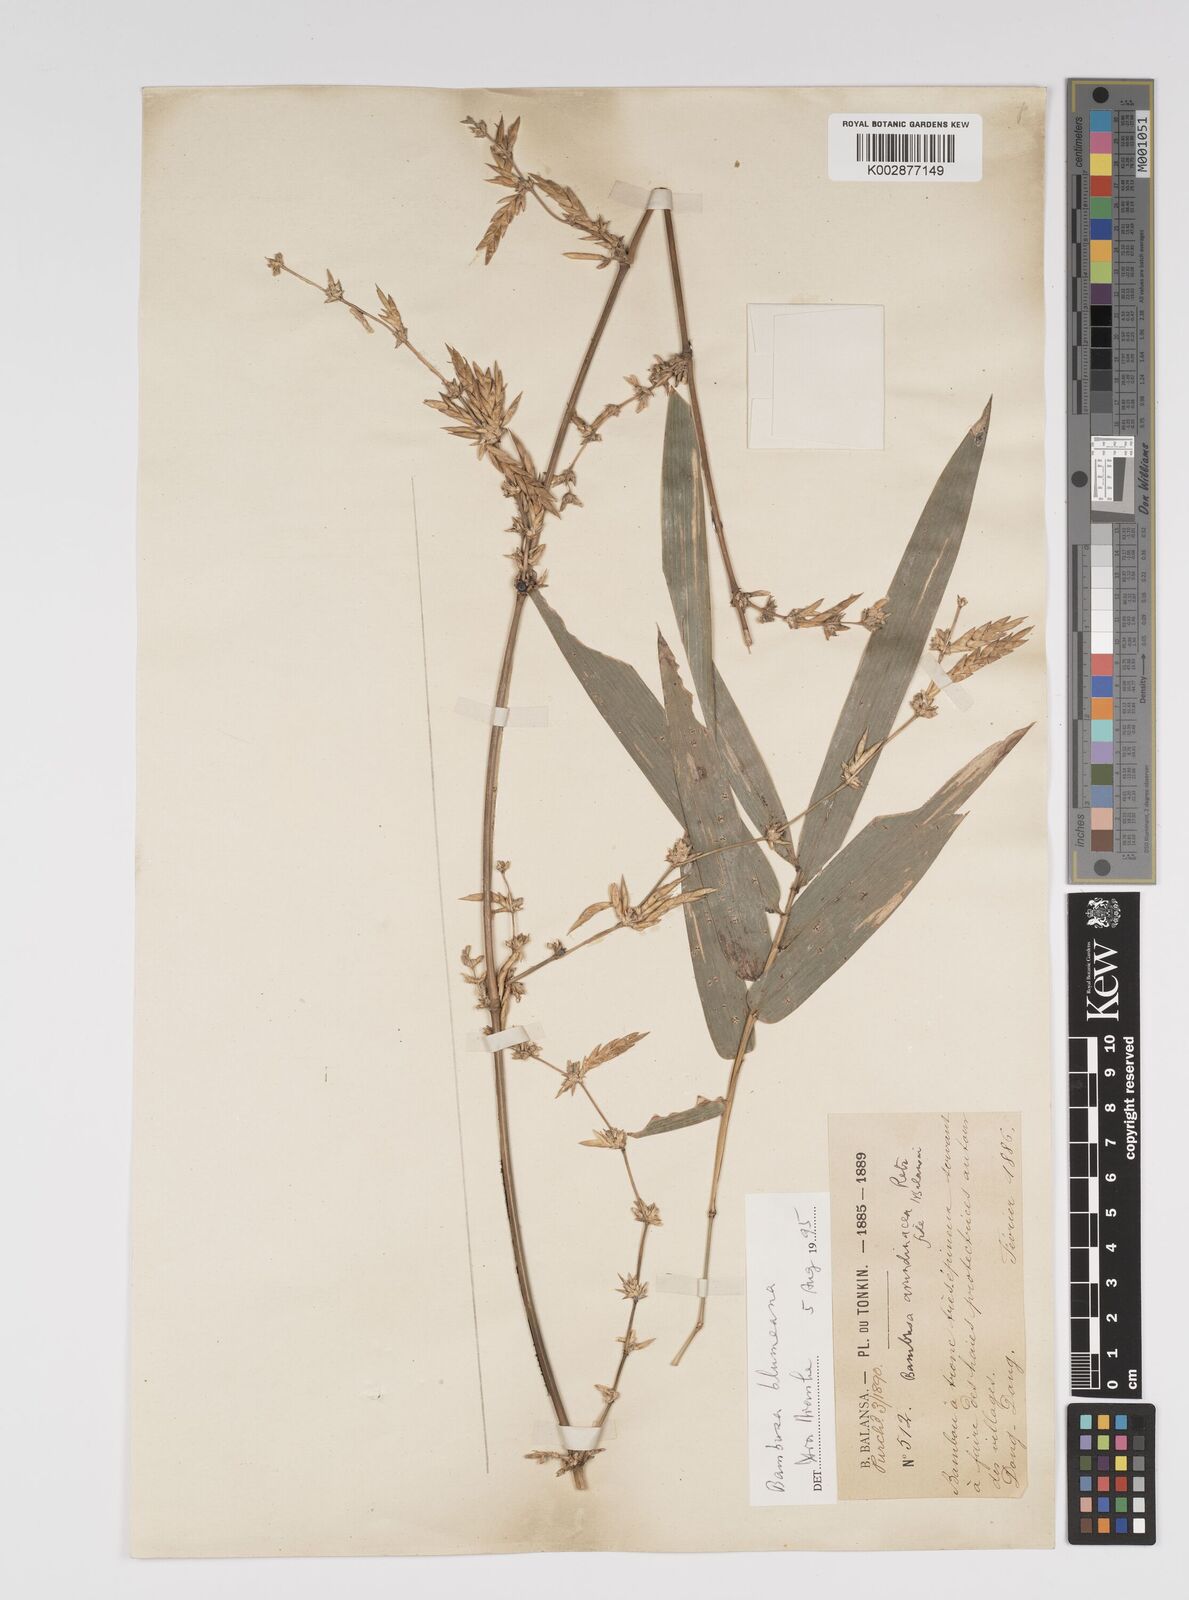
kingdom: Plantae
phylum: Tracheophyta
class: Liliopsida
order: Poales
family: Poaceae
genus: Bambusa
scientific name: Bambusa
